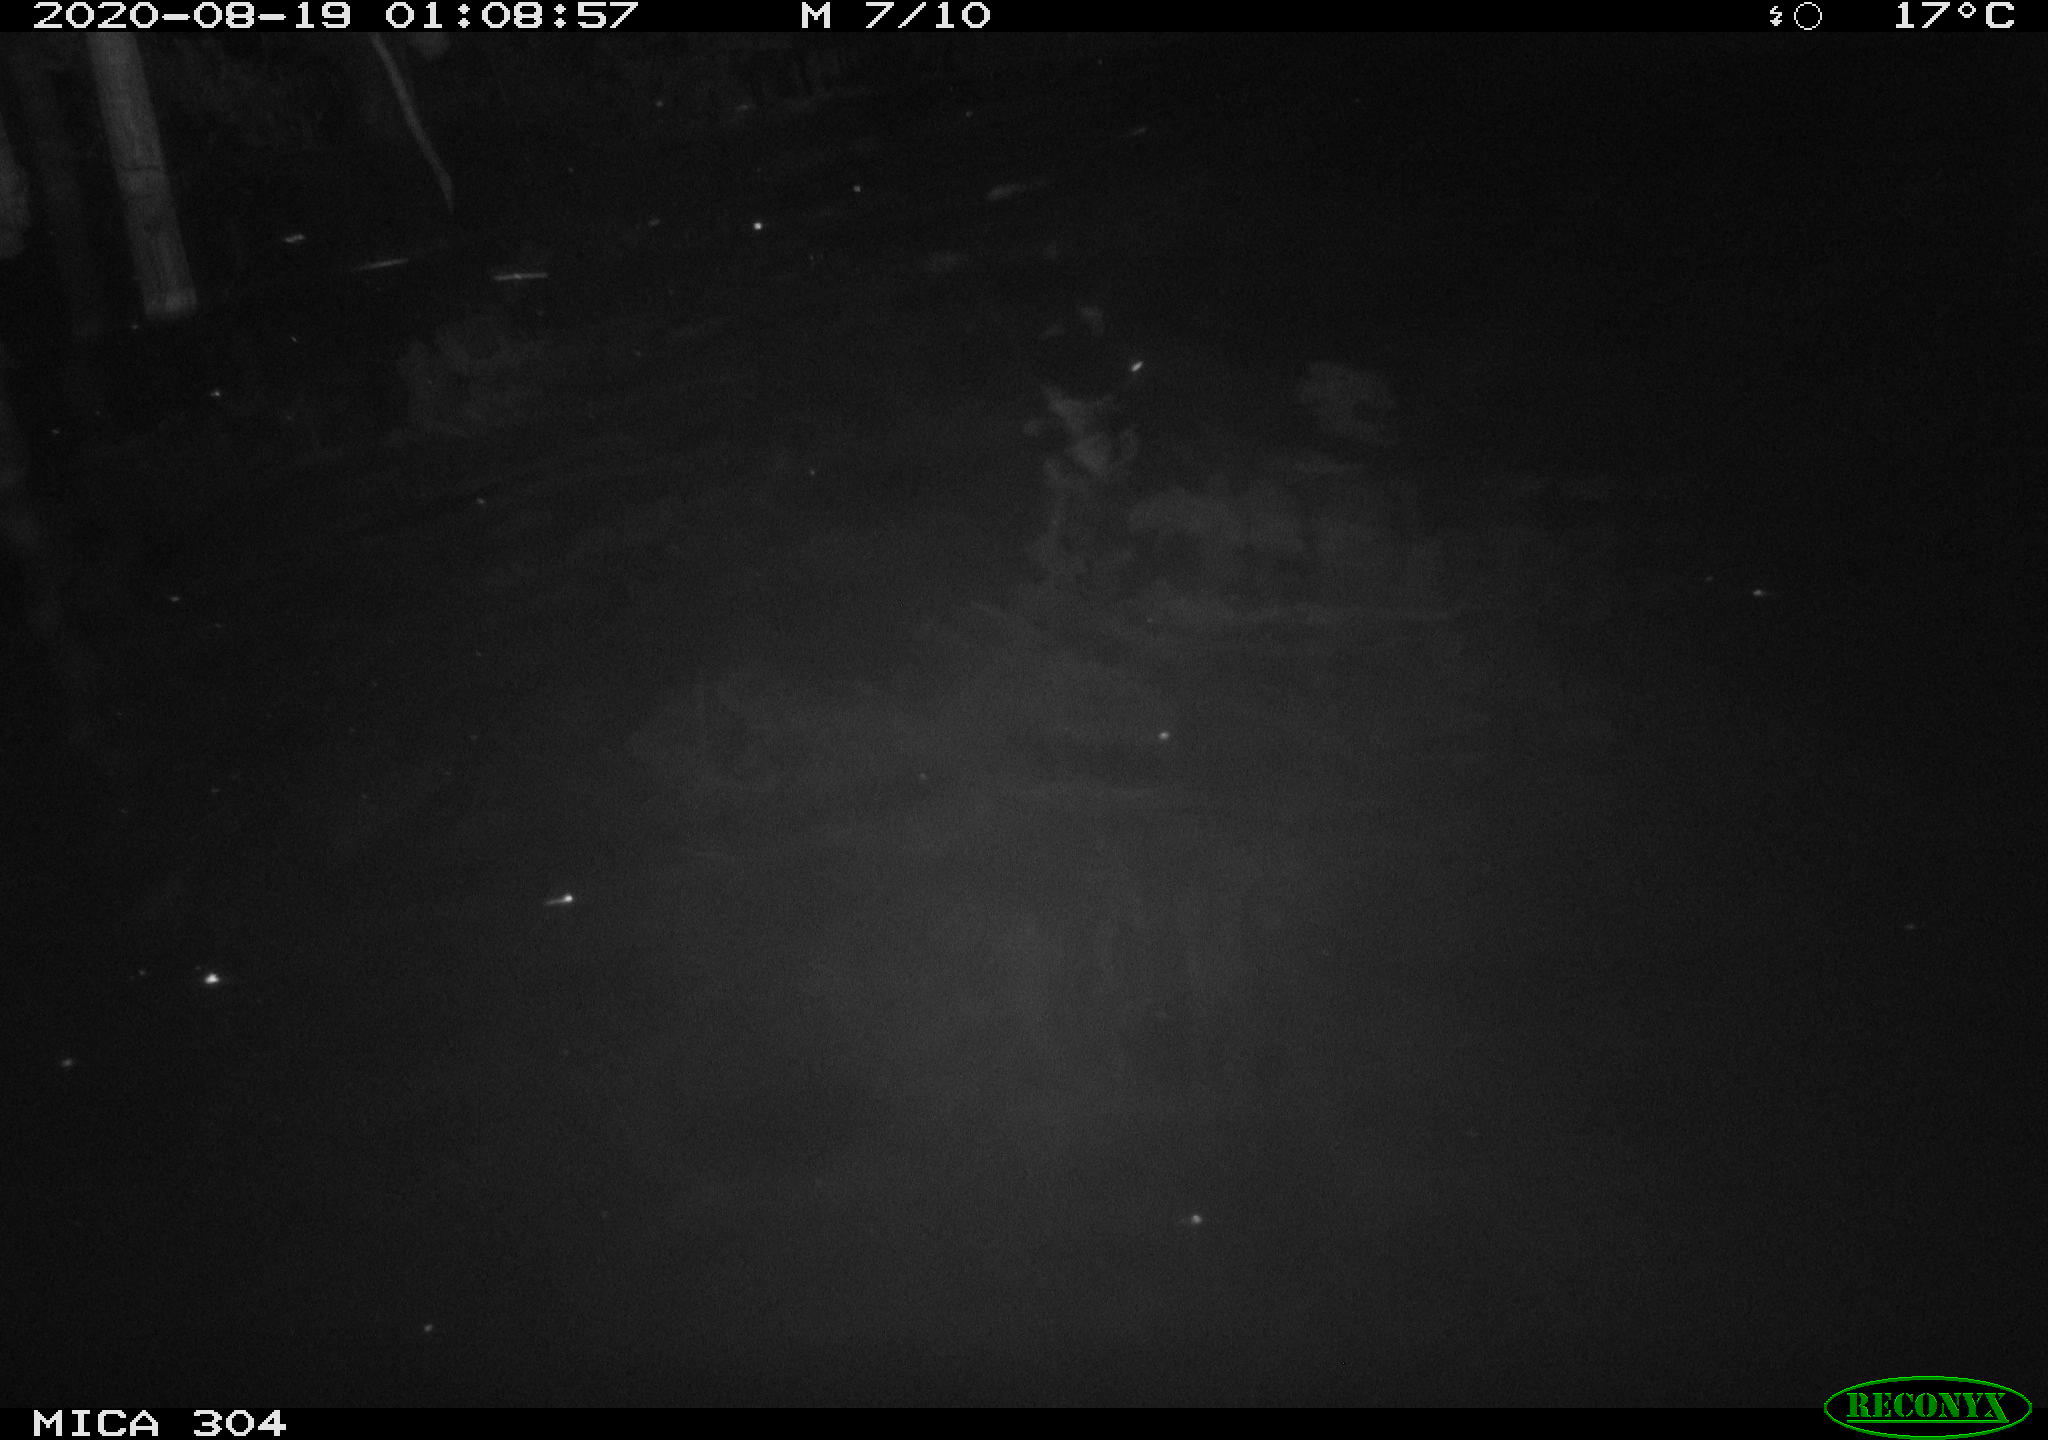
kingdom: Animalia
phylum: Chordata
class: Mammalia
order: Rodentia
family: Cricetidae
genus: Ondatra
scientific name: Ondatra zibethicus
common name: Muskrat
